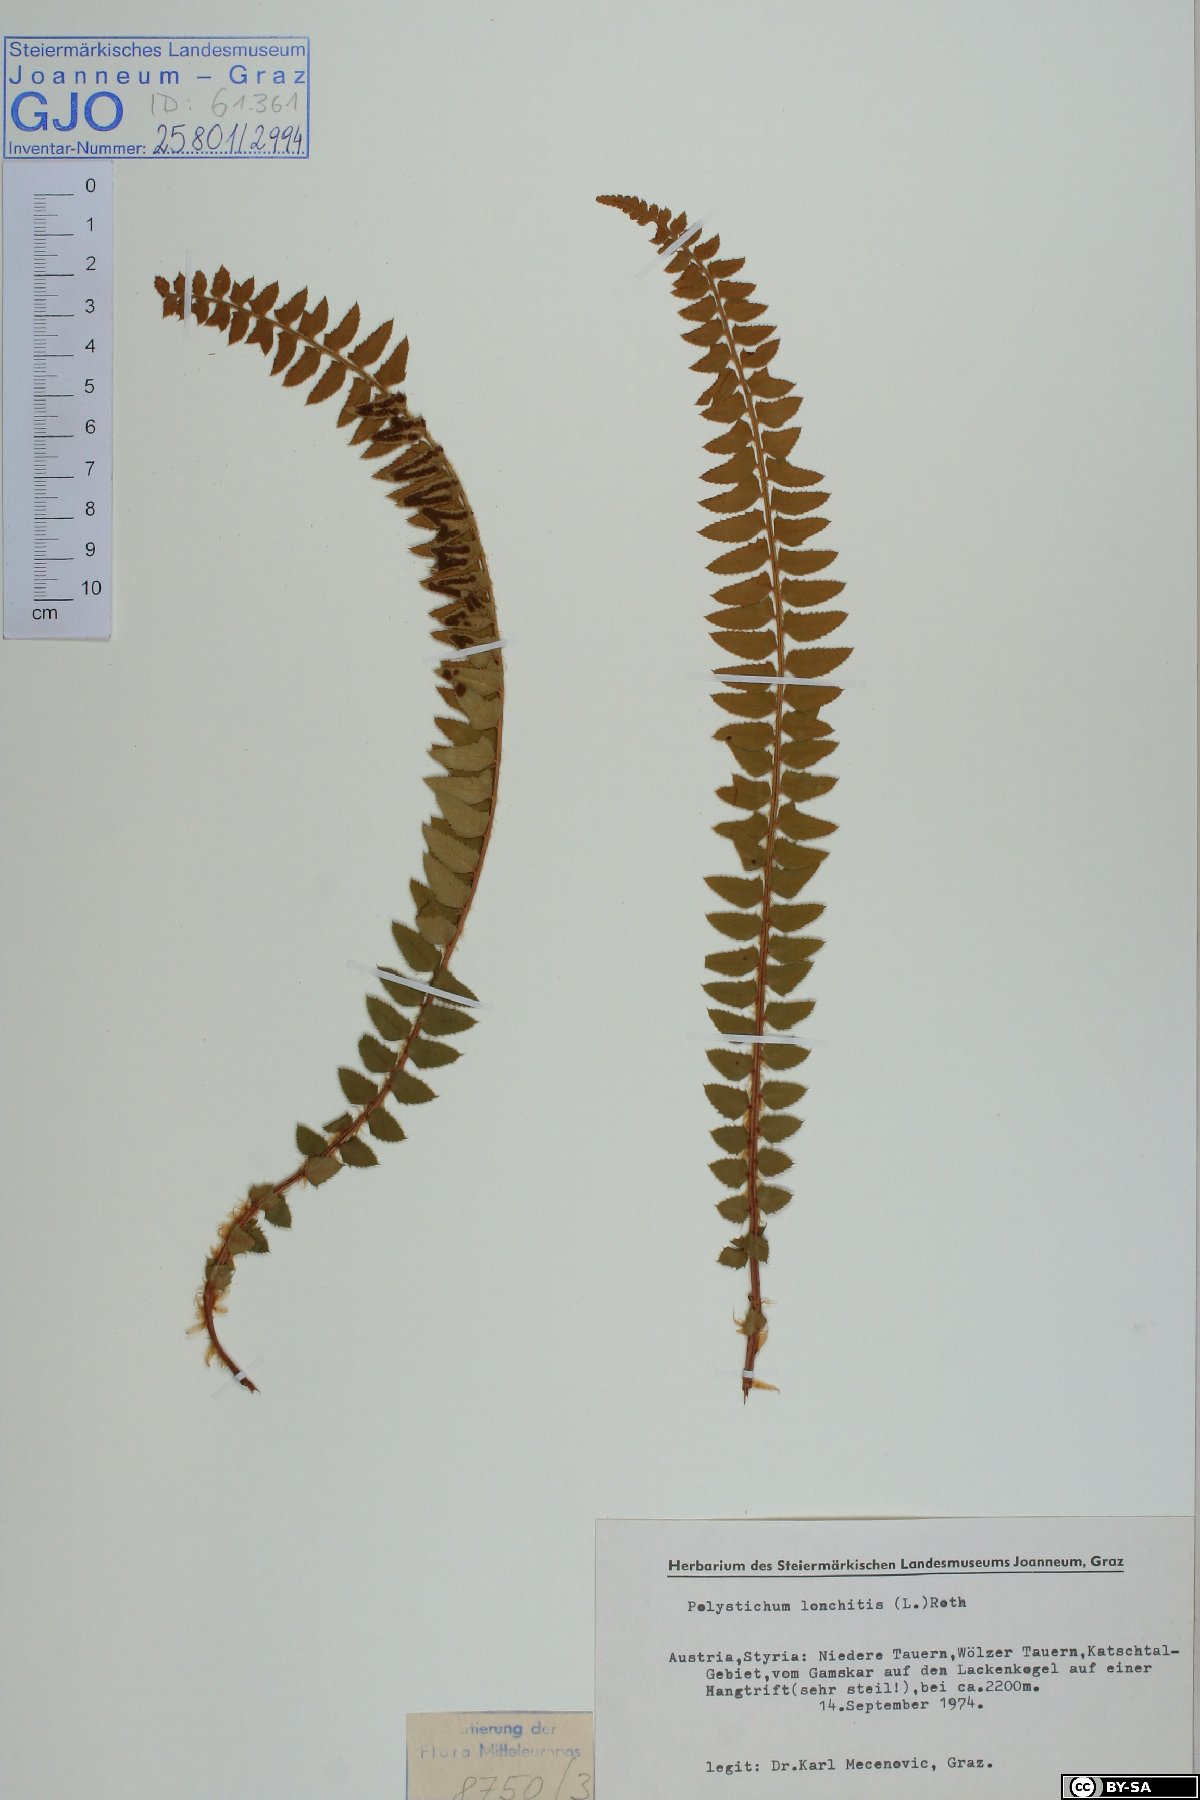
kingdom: Plantae
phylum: Tracheophyta
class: Polypodiopsida
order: Polypodiales
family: Dryopteridaceae
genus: Polystichum
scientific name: Polystichum lonchitis
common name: Holly fern
